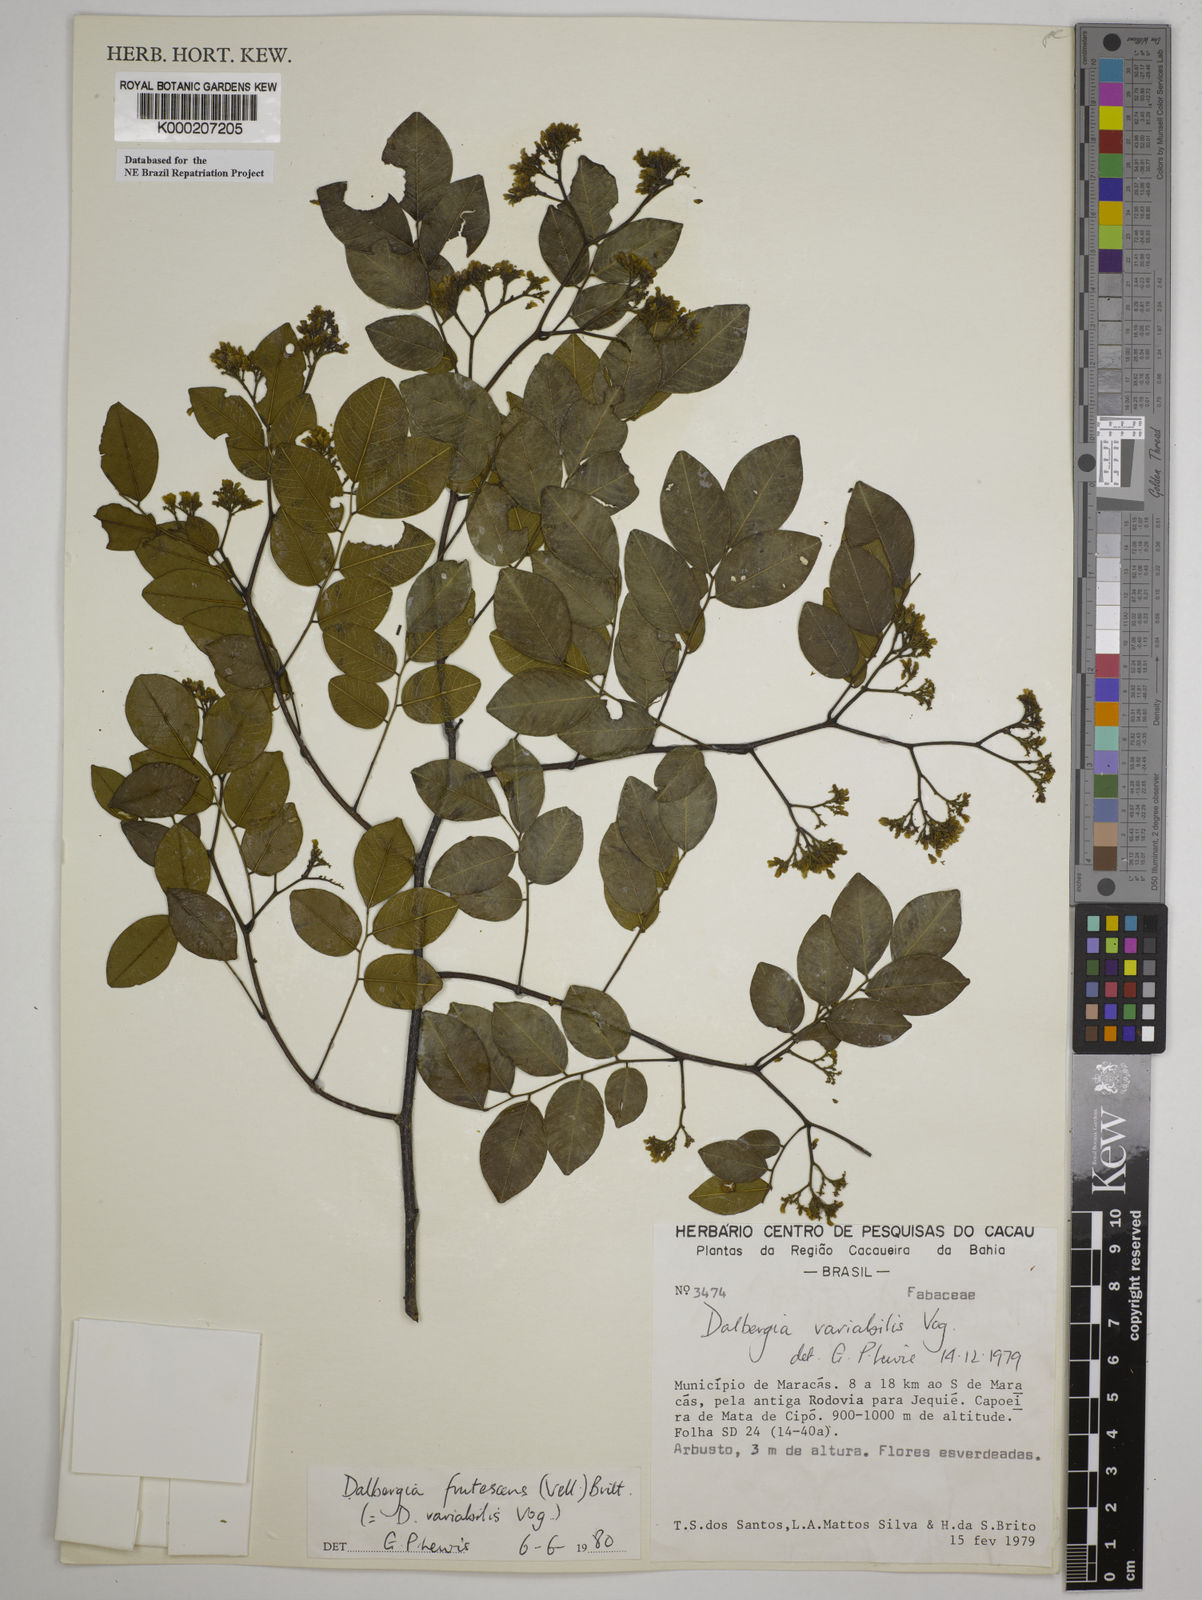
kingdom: Plantae
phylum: Tracheophyta
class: Magnoliopsida
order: Fabales
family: Fabaceae
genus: Dalbergia
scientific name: Dalbergia frutescens
